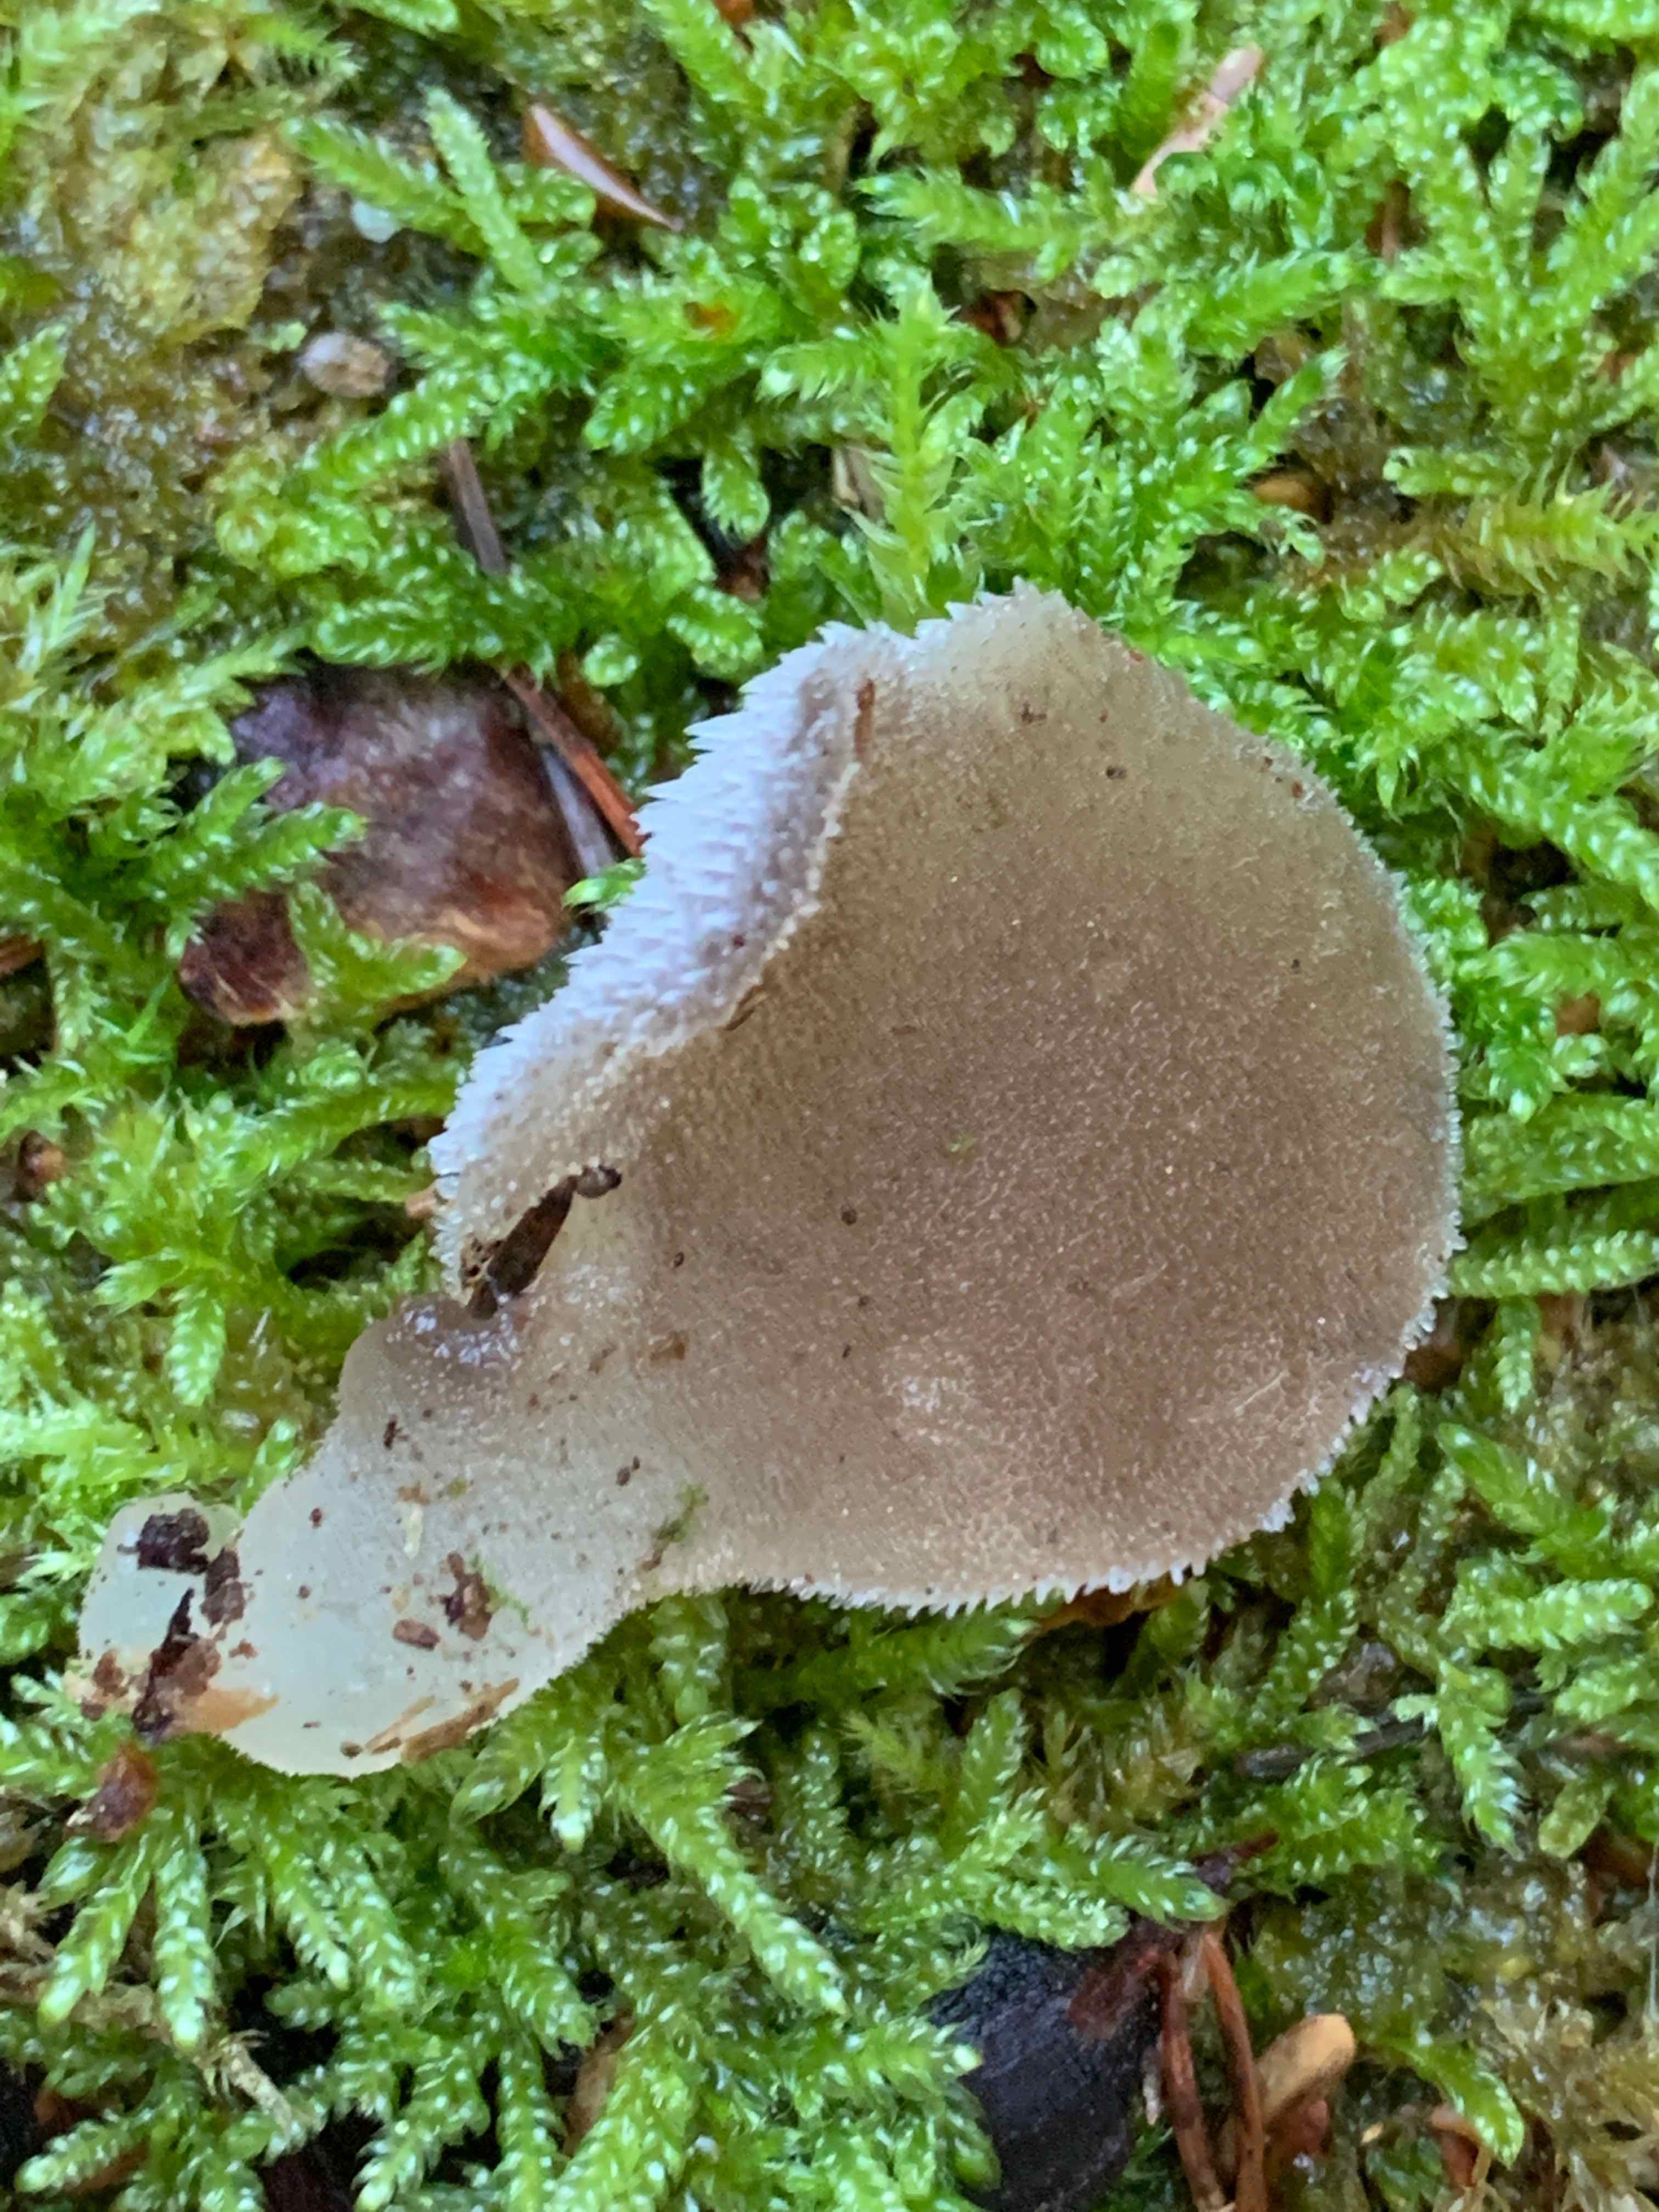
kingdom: Fungi
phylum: Basidiomycota
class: Agaricomycetes
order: Auriculariales
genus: Pseudohydnum
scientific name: Pseudohydnum gelatinosum
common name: bævretand
